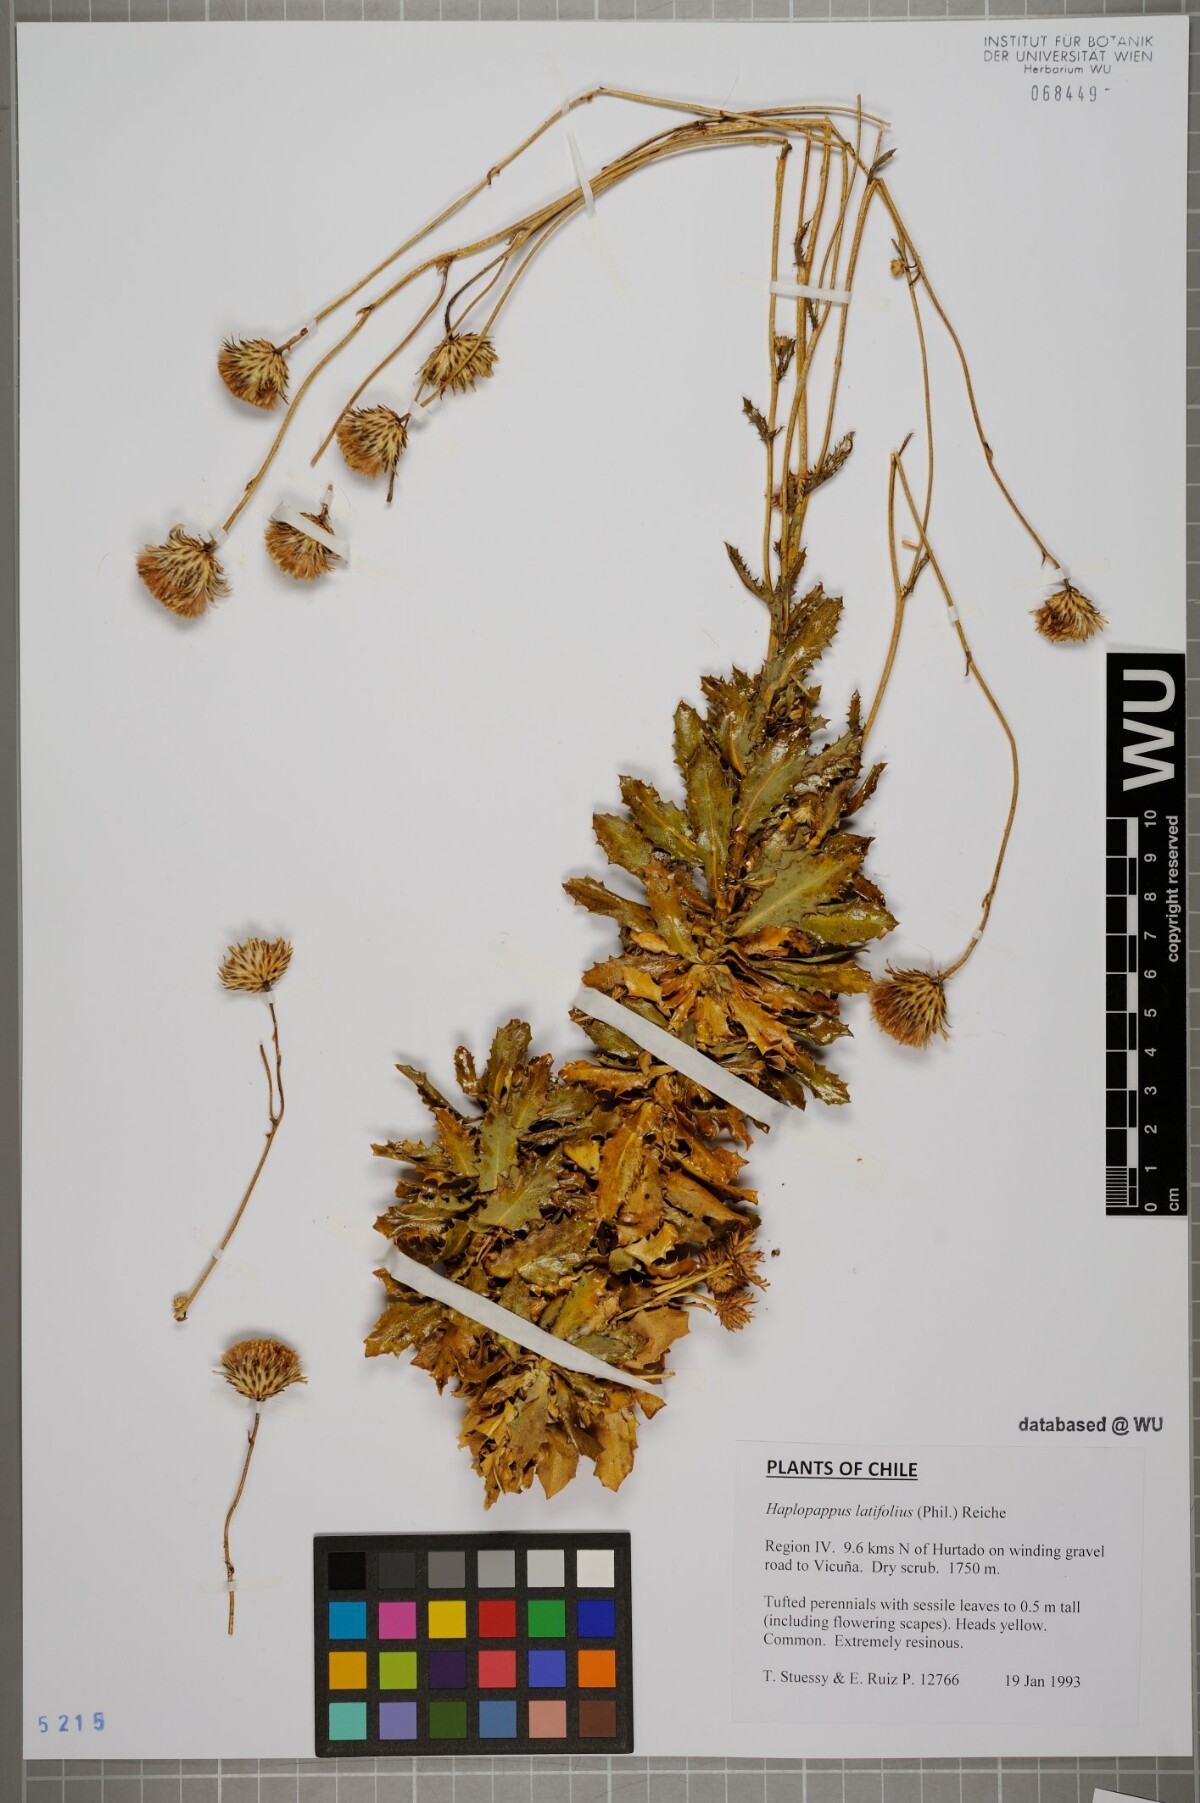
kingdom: Plantae
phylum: Tracheophyta
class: Magnoliopsida
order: Asterales
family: Asteraceae
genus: Haplopappus
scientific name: Haplopappus remyanus
